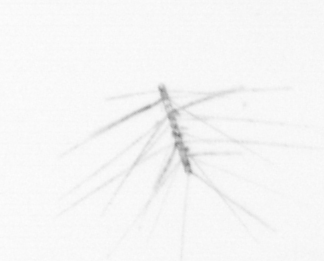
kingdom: Chromista
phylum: Ochrophyta
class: Bacillariophyceae
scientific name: Bacillariophyceae
